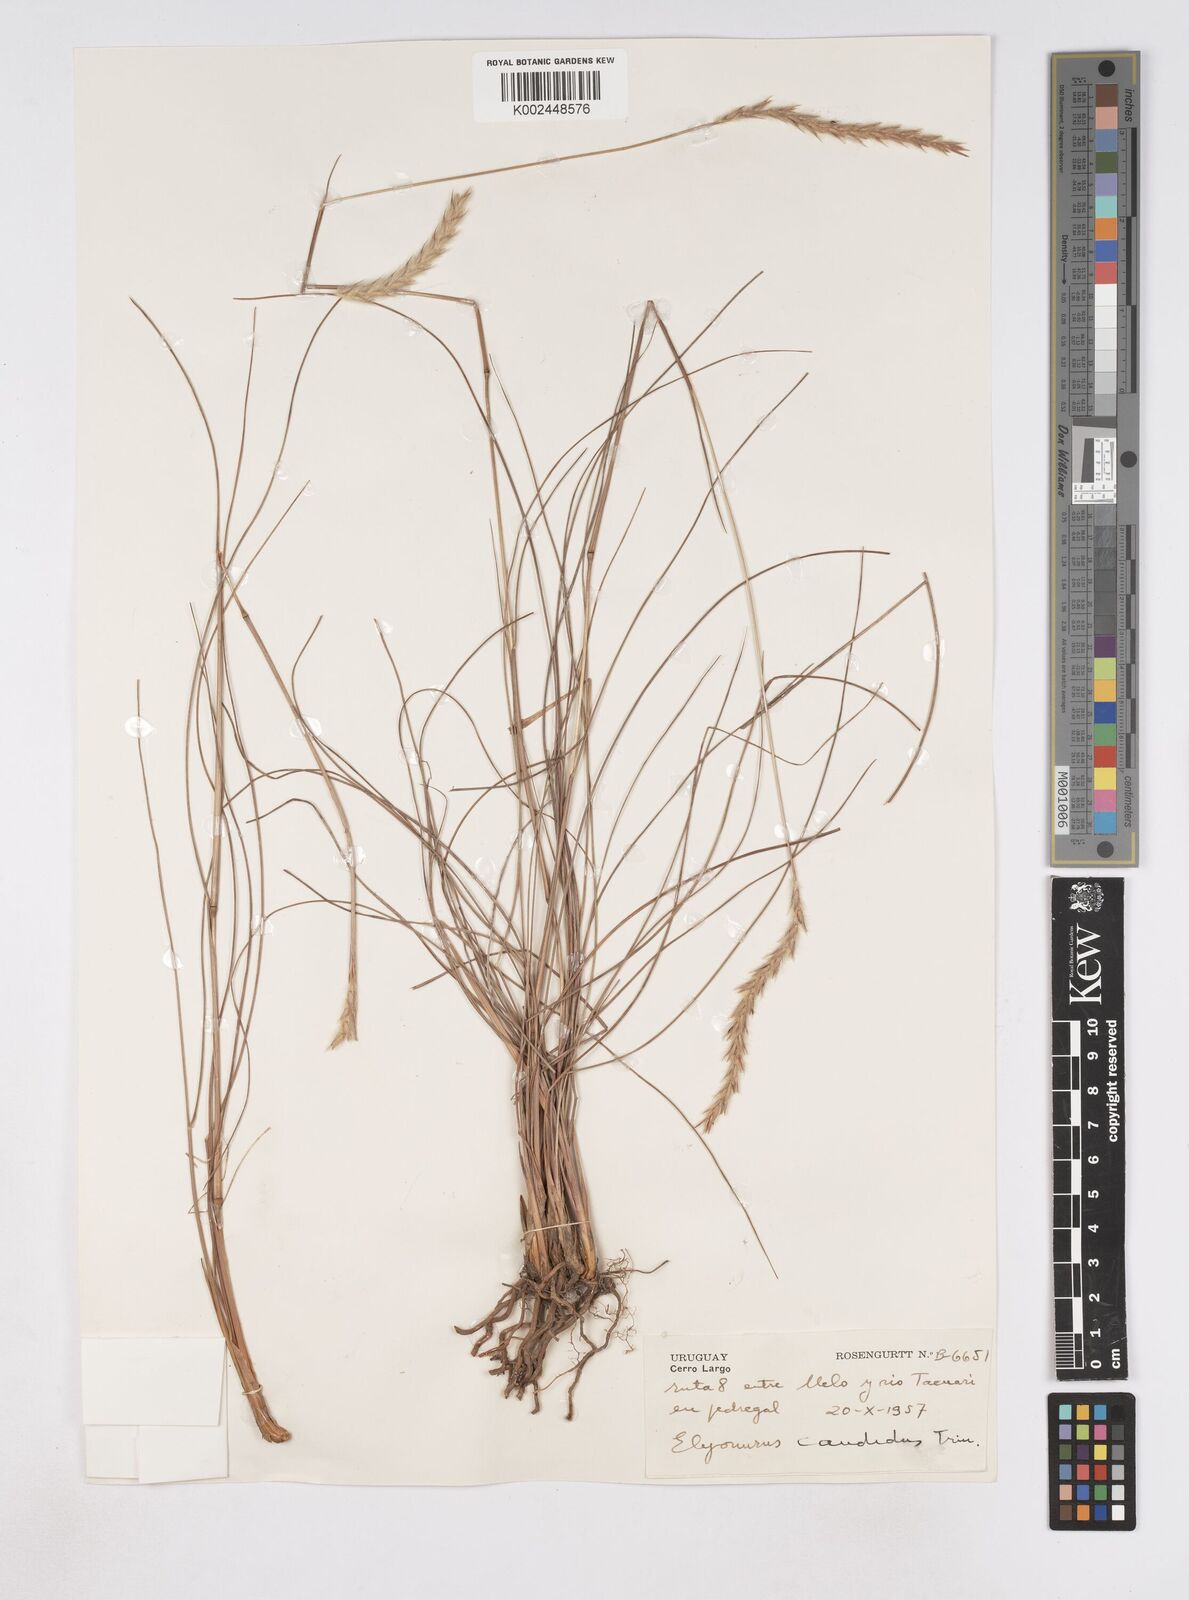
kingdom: Plantae
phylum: Tracheophyta
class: Liliopsida
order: Poales
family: Poaceae
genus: Elionurus
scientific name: Elionurus muticus
